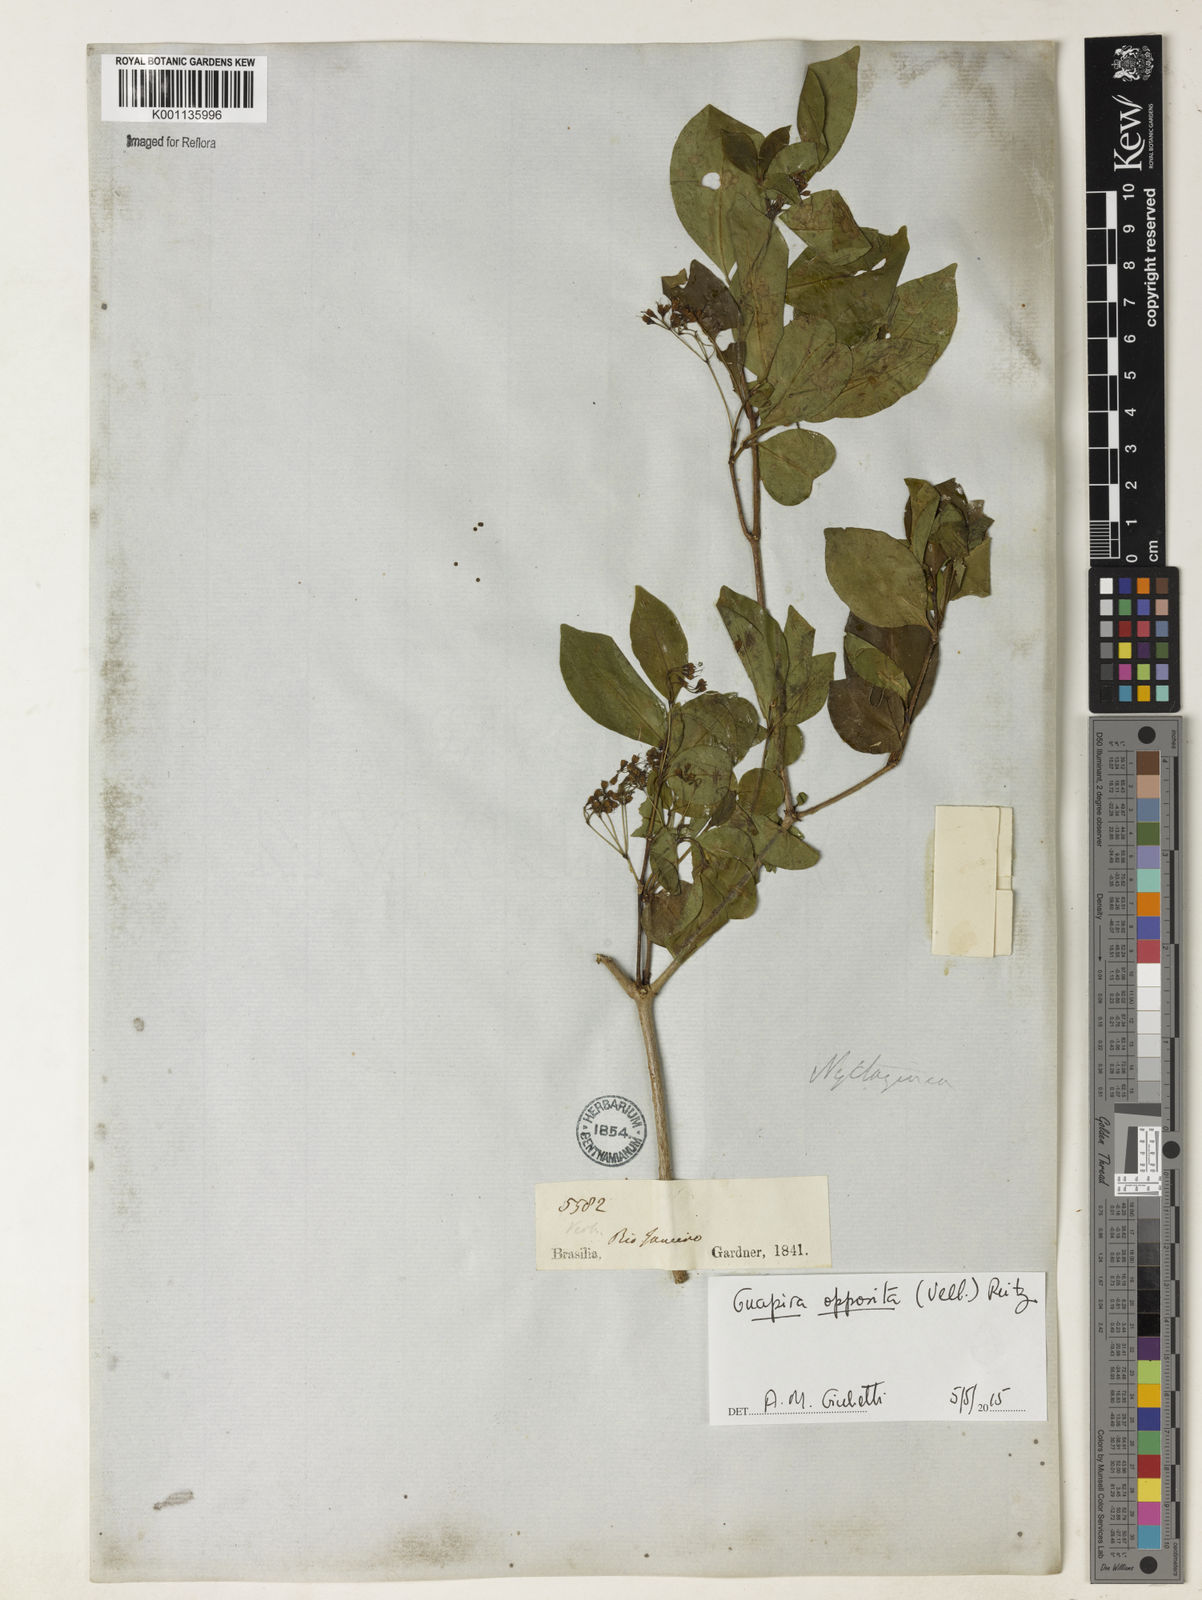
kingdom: Plantae
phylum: Tracheophyta
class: Magnoliopsida
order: Caryophyllales
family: Nyctaginaceae
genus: Guapira
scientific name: Guapira opposita
